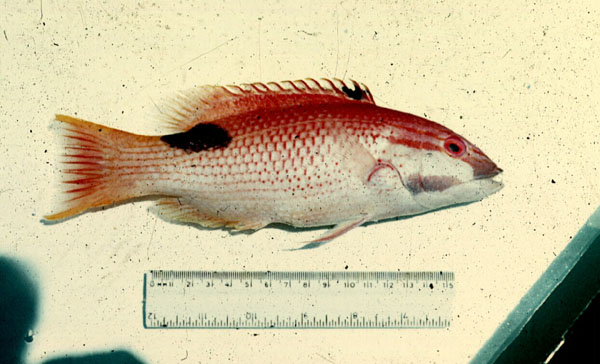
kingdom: Animalia
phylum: Chordata
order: Perciformes
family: Labridae
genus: Bodianus
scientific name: Bodianus bilunulatus
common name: Tarry hogfish
